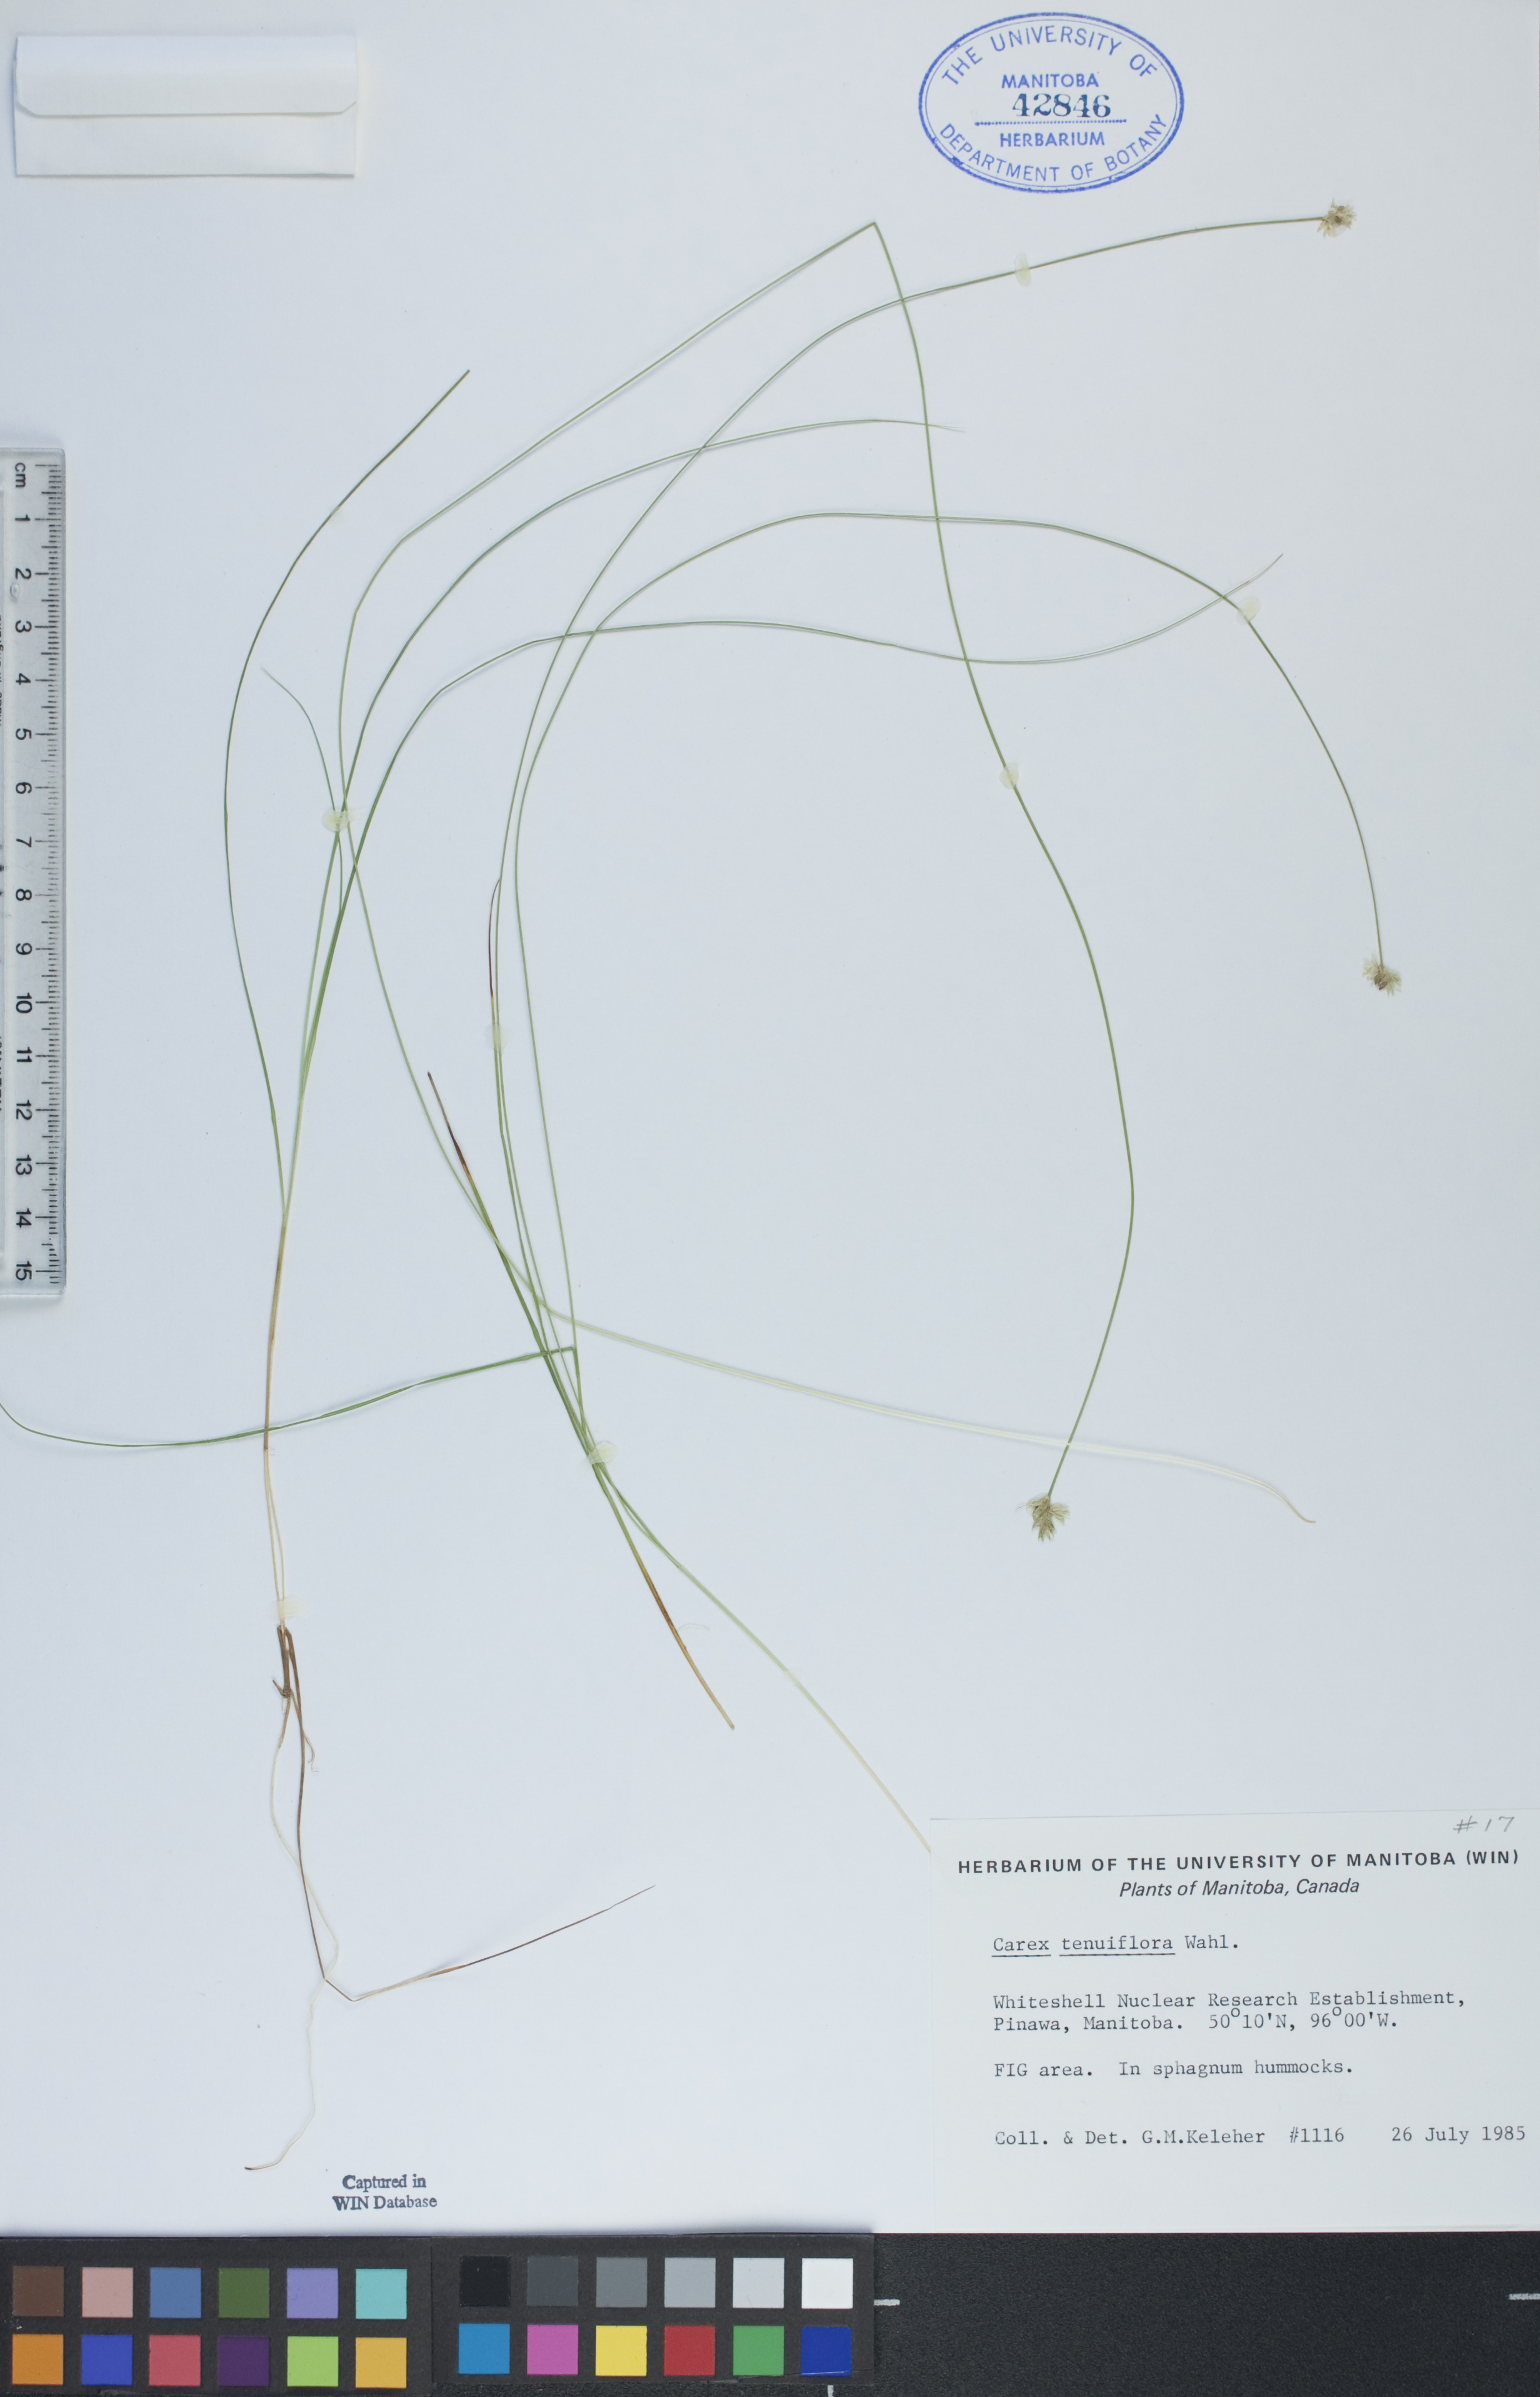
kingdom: Plantae
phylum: Tracheophyta
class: Liliopsida
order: Poales
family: Cyperaceae
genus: Carex
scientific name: Carex tenera
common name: Broad-fruited sedge
